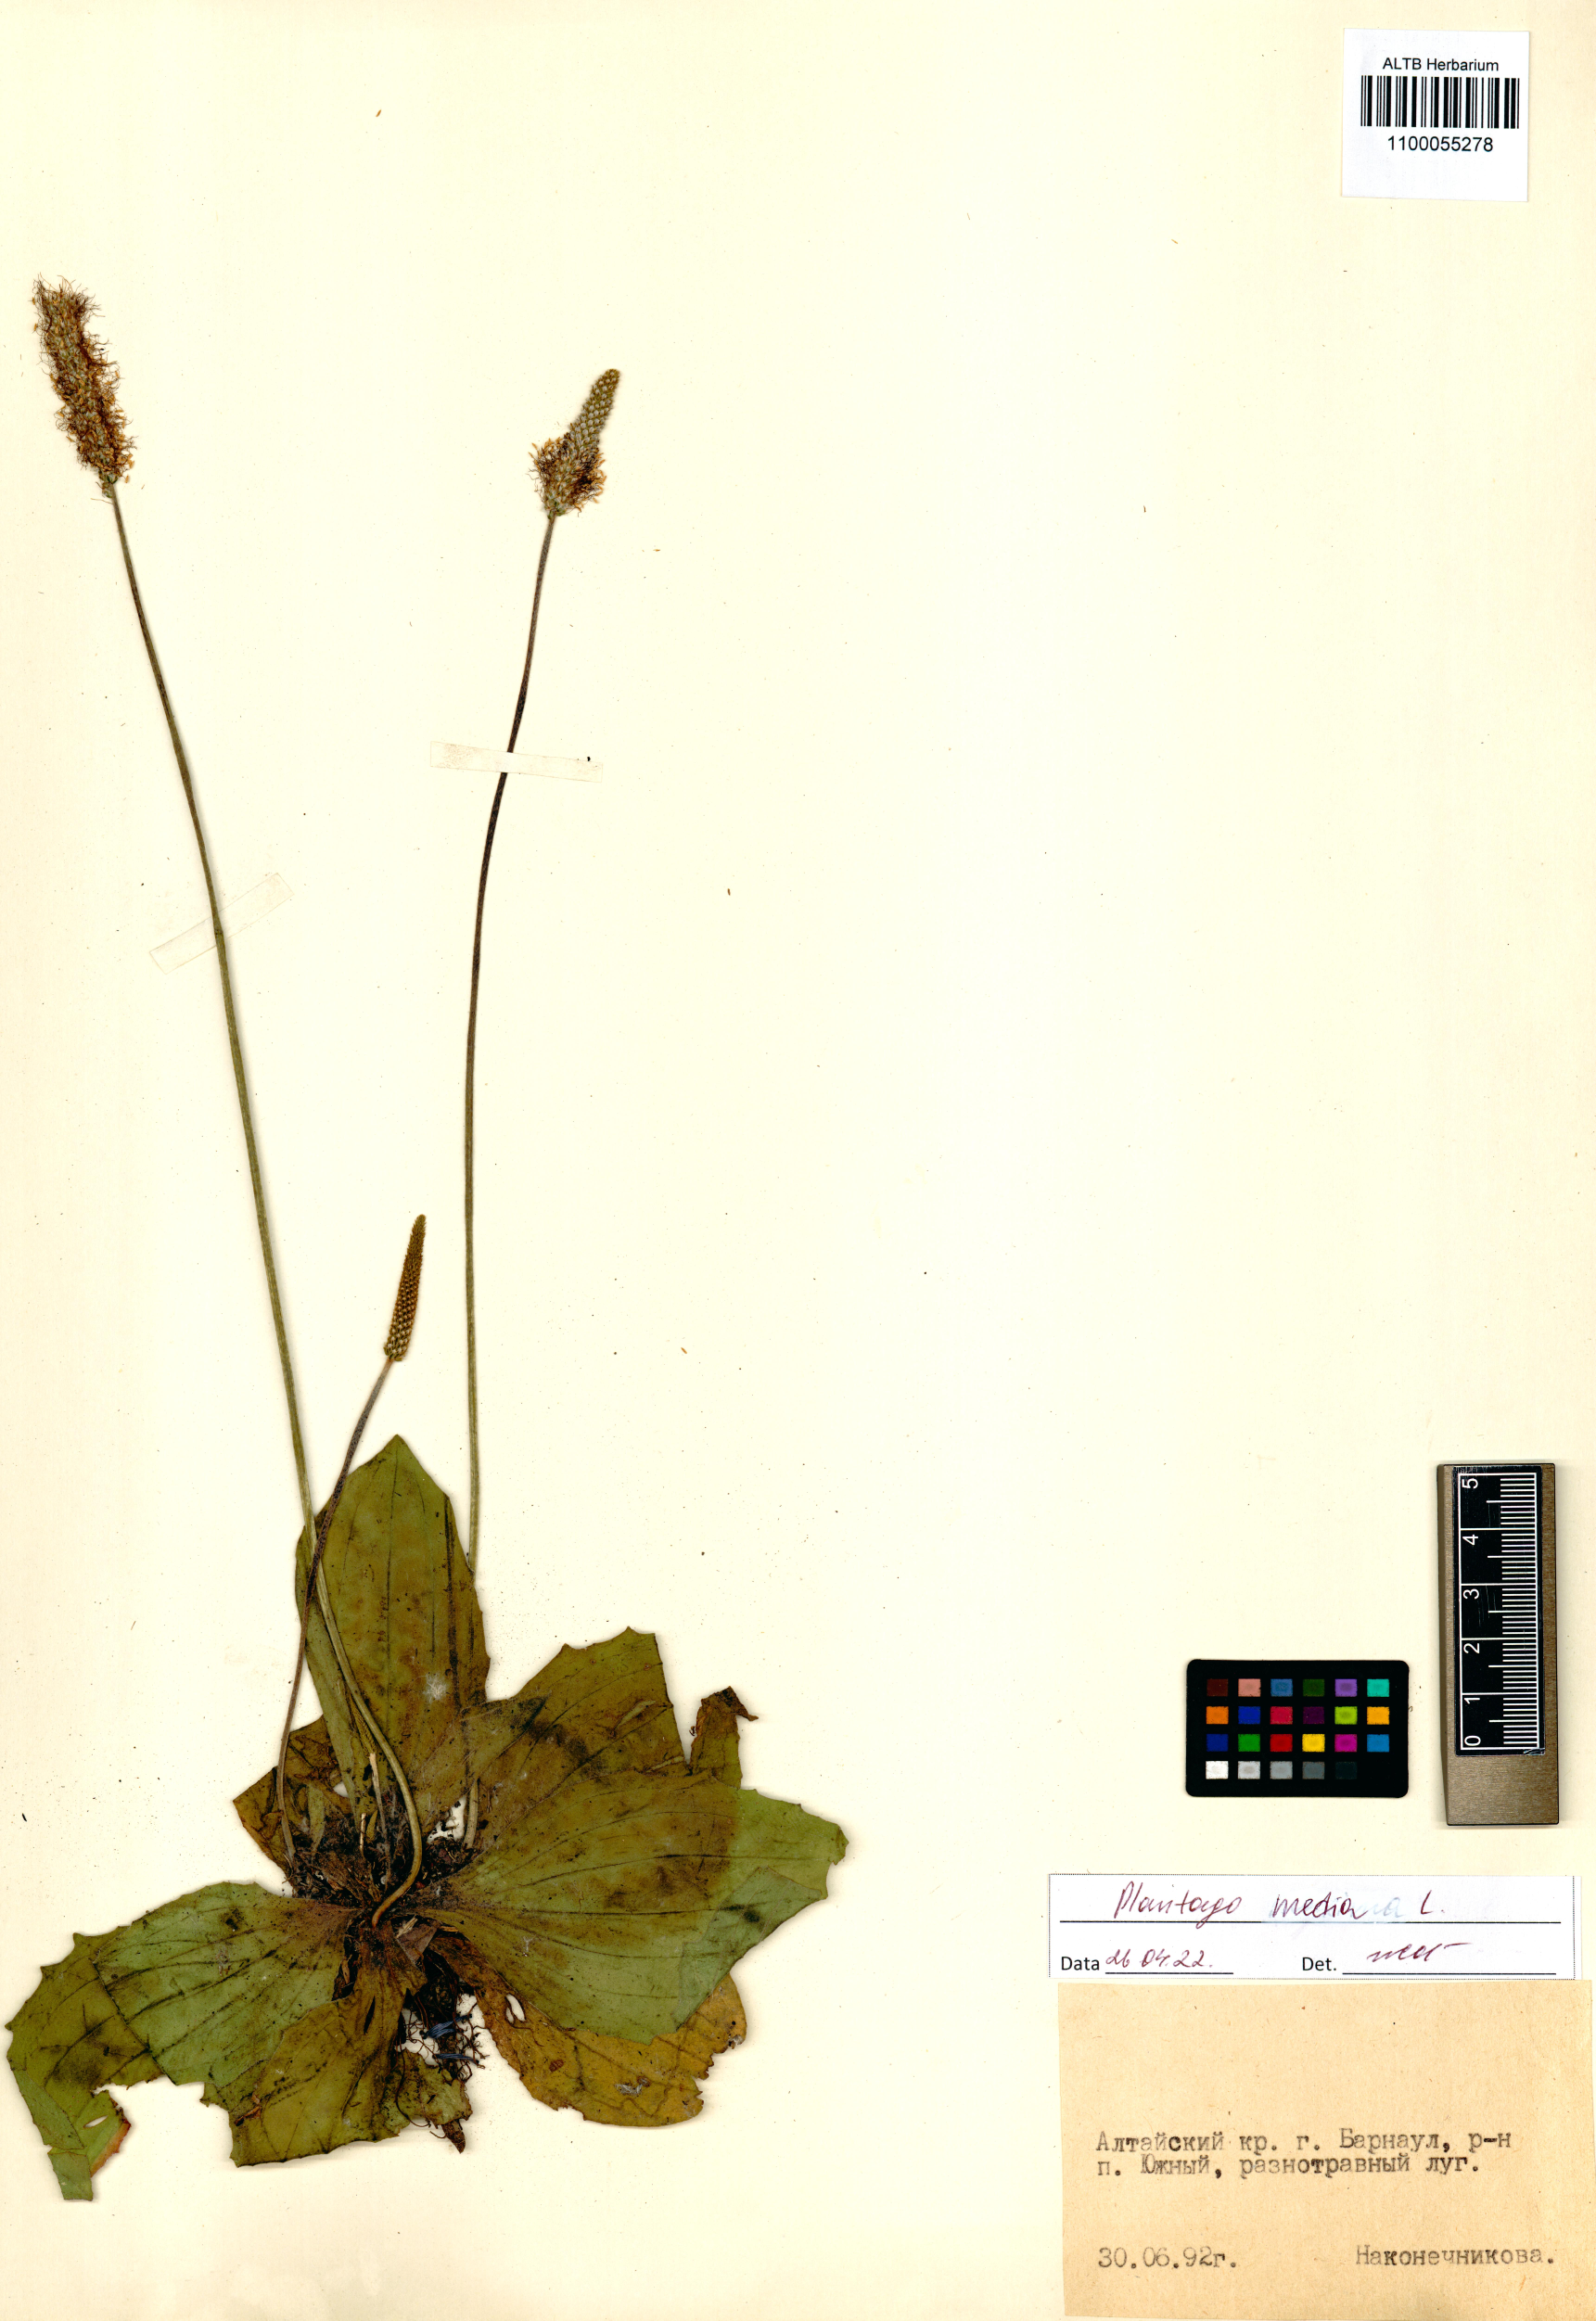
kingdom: Plantae
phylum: Tracheophyta
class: Magnoliopsida
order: Lamiales
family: Plantaginaceae
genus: Plantago
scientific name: Plantago media
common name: Hoary plantain
